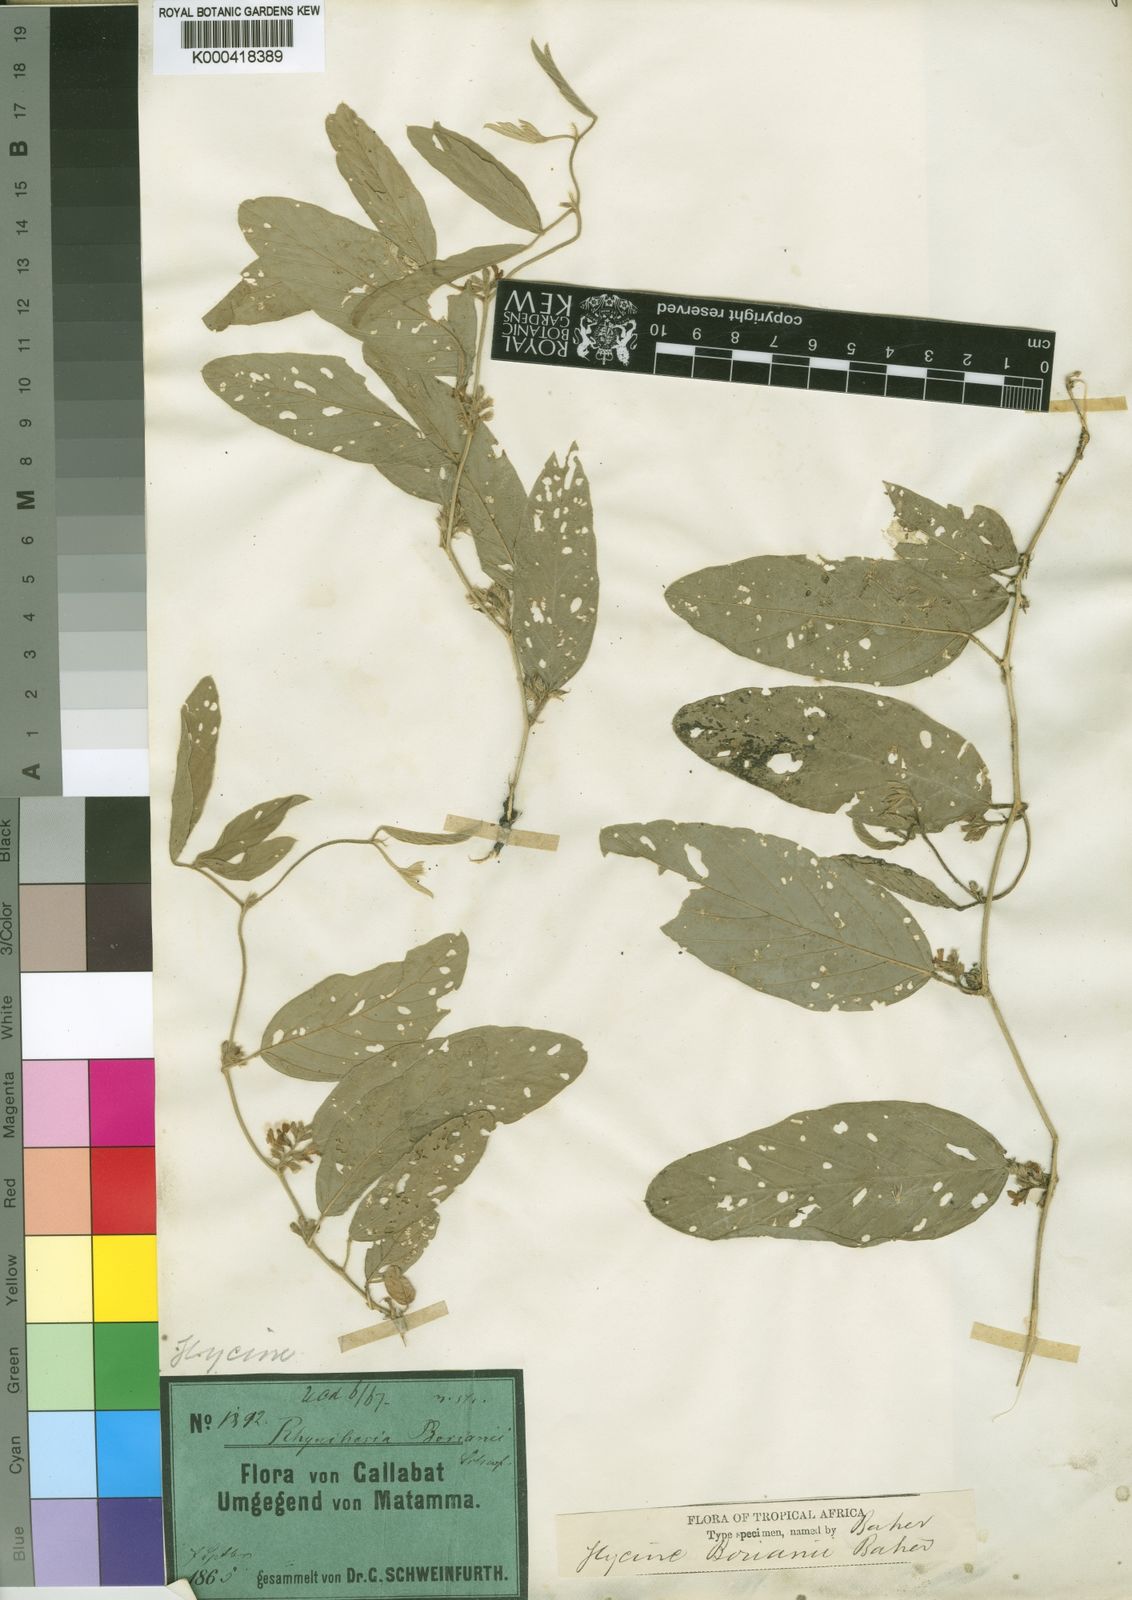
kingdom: Plantae
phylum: Tracheophyta
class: Magnoliopsida
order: Fabales
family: Fabaceae
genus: Pseudoeriosema
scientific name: Pseudoeriosema borianii
